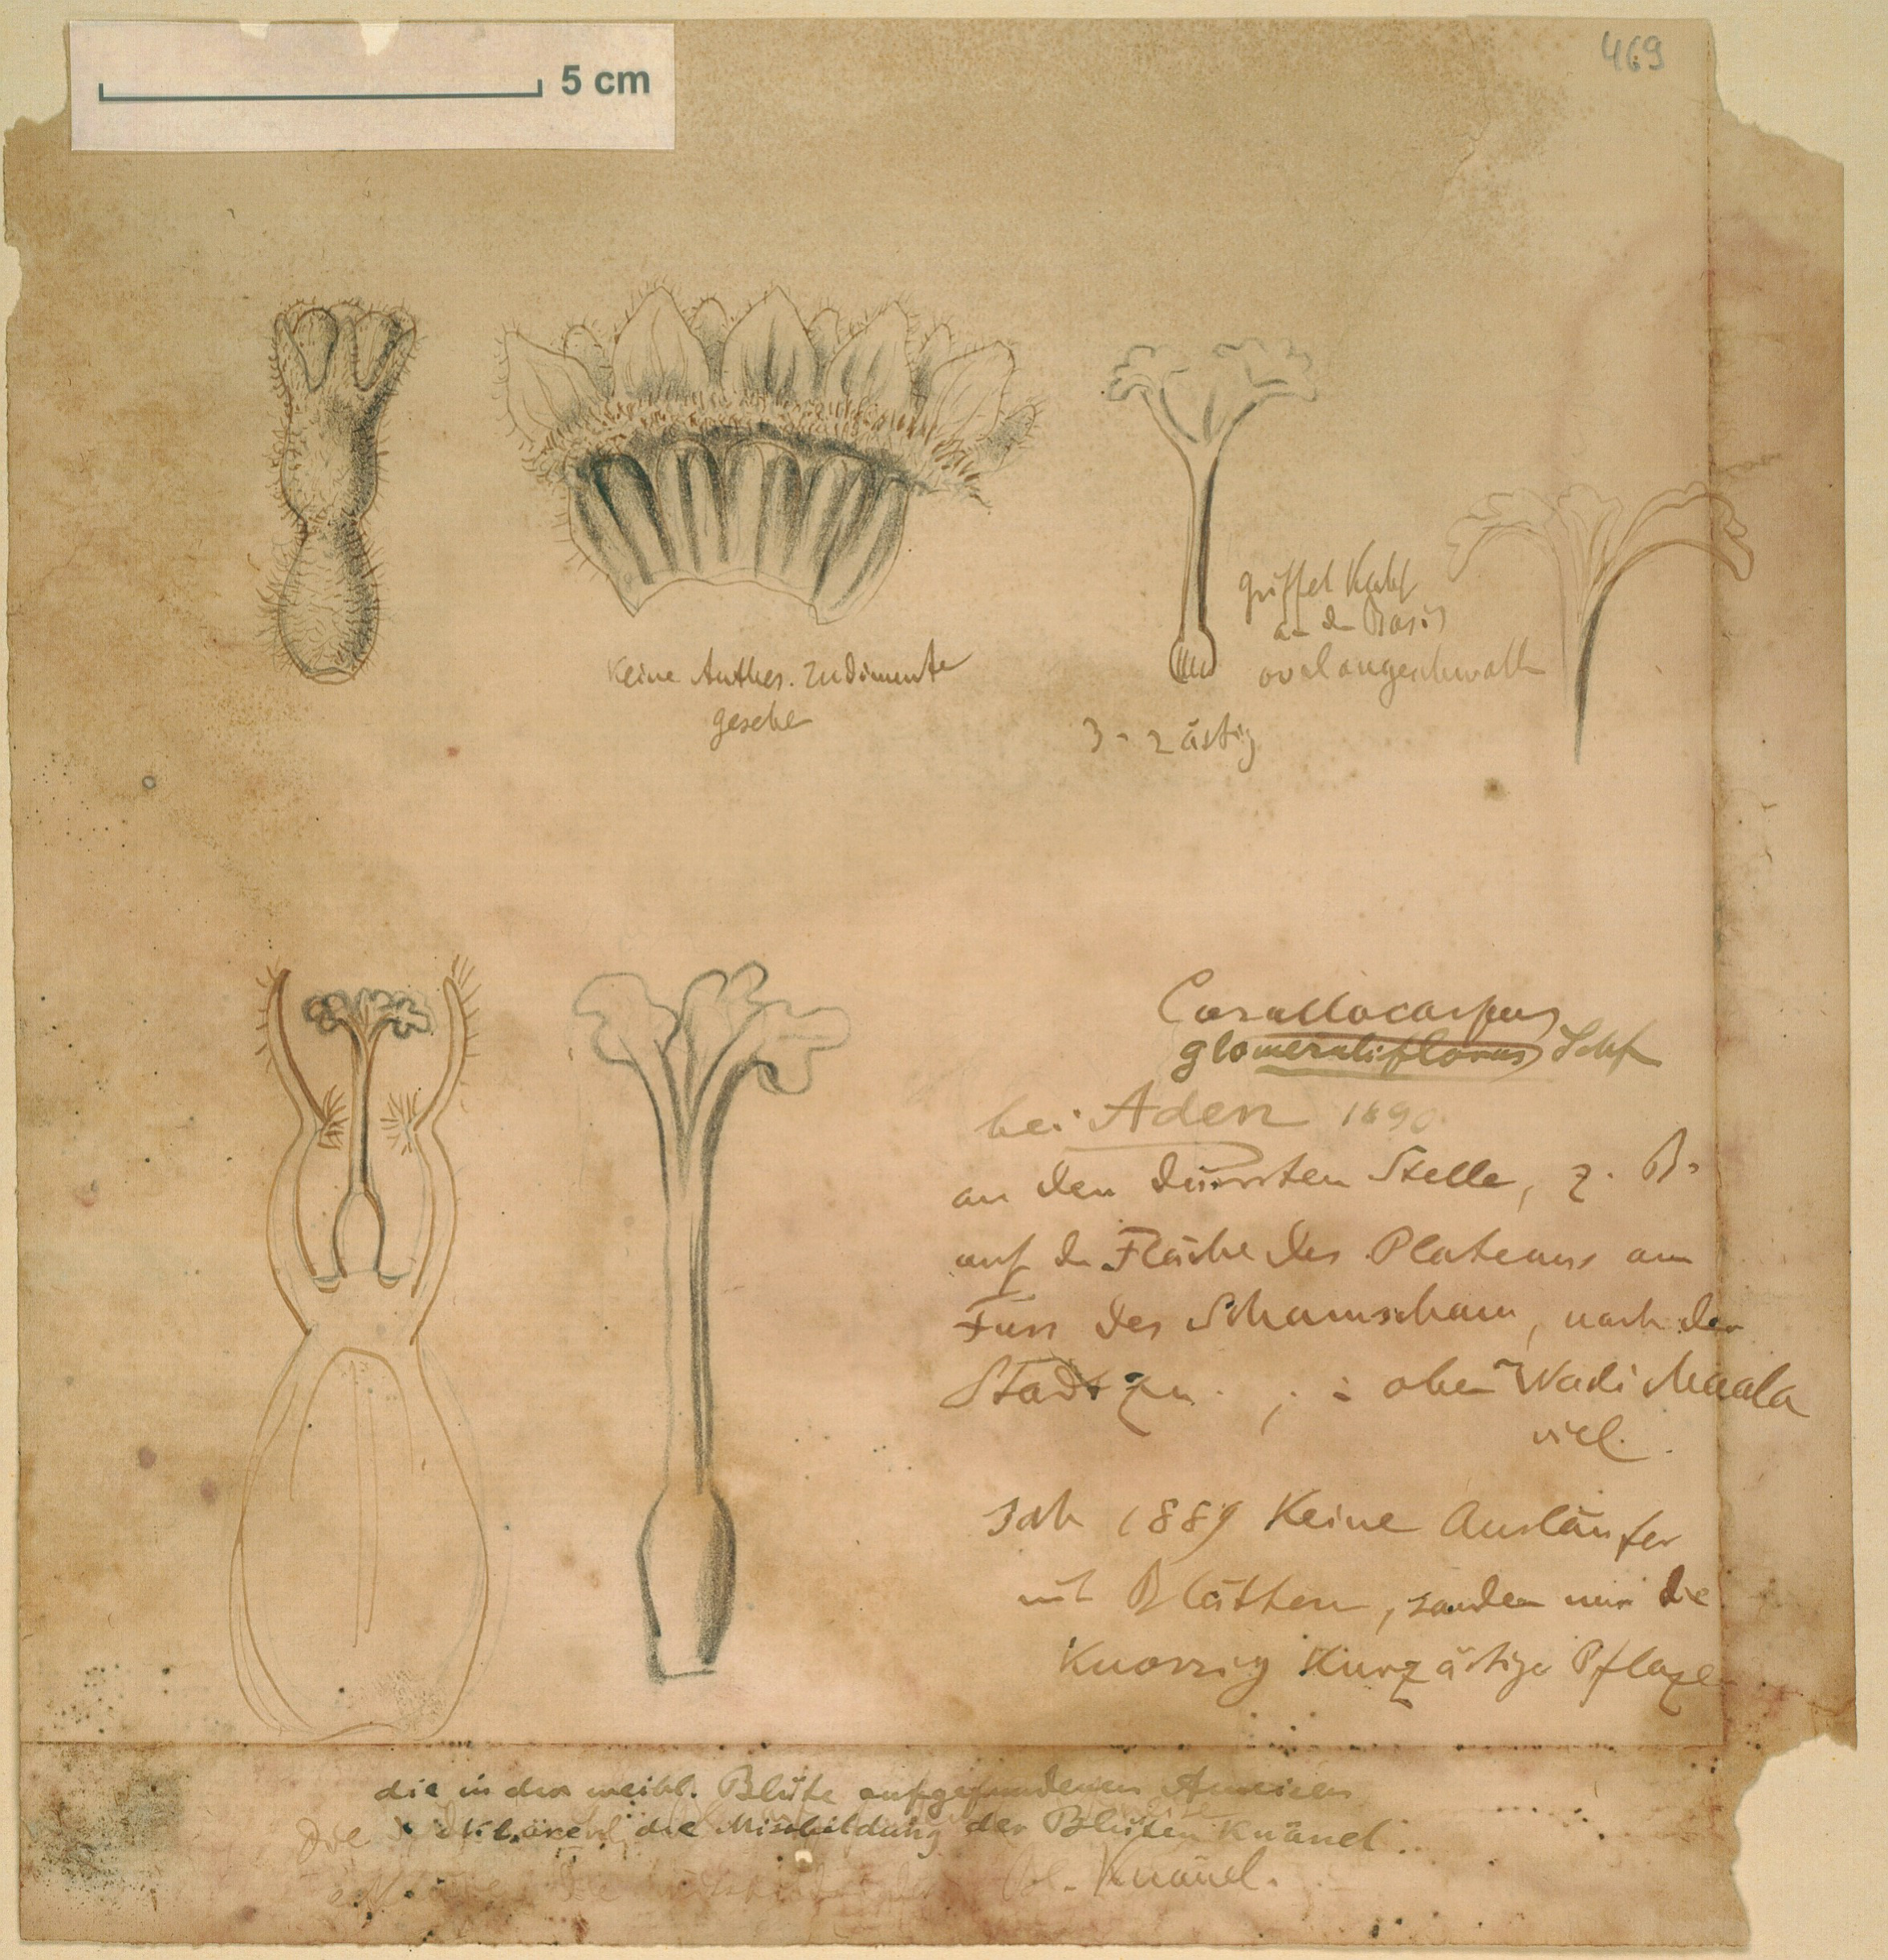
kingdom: Plantae
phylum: Tracheophyta
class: Magnoliopsida
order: Cucurbitales
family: Cucurbitaceae
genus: Corallocarpus
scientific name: Corallocarpus glomeruliflorus
